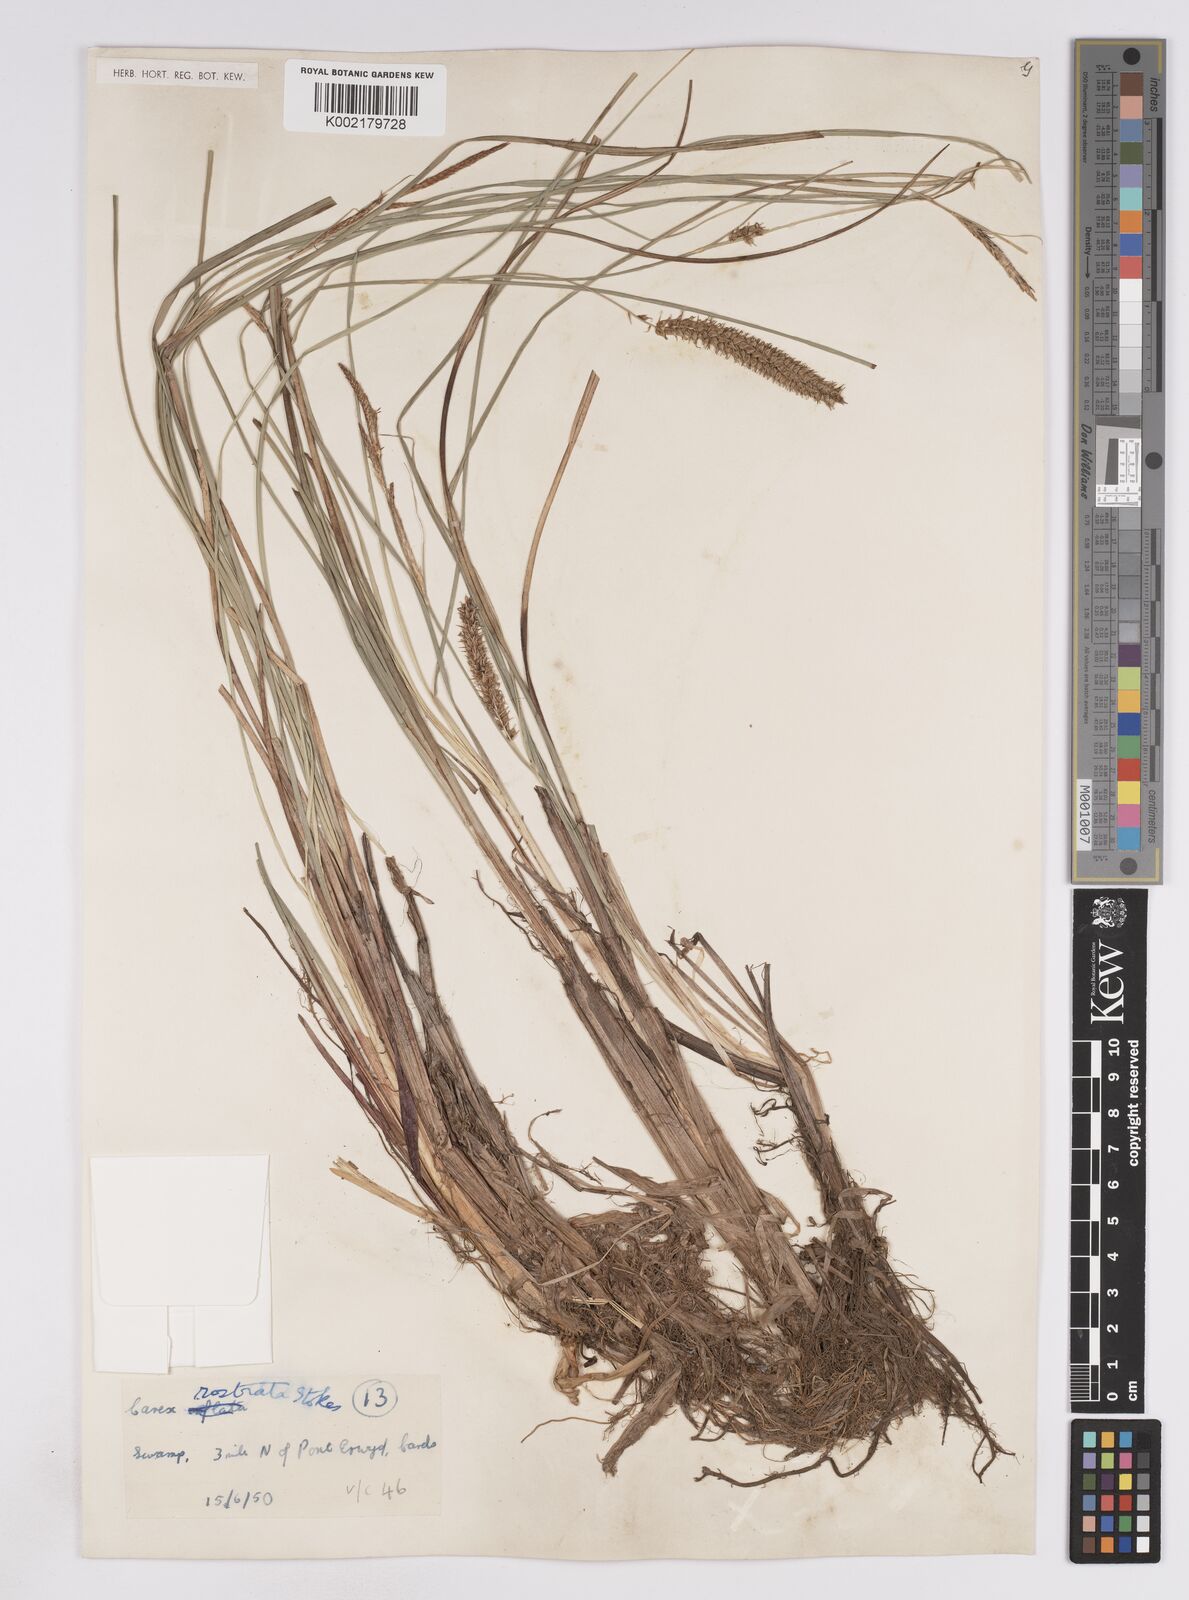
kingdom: Plantae
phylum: Tracheophyta
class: Liliopsida
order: Poales
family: Cyperaceae
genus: Carex
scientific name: Carex rostrata
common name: Bottle sedge
